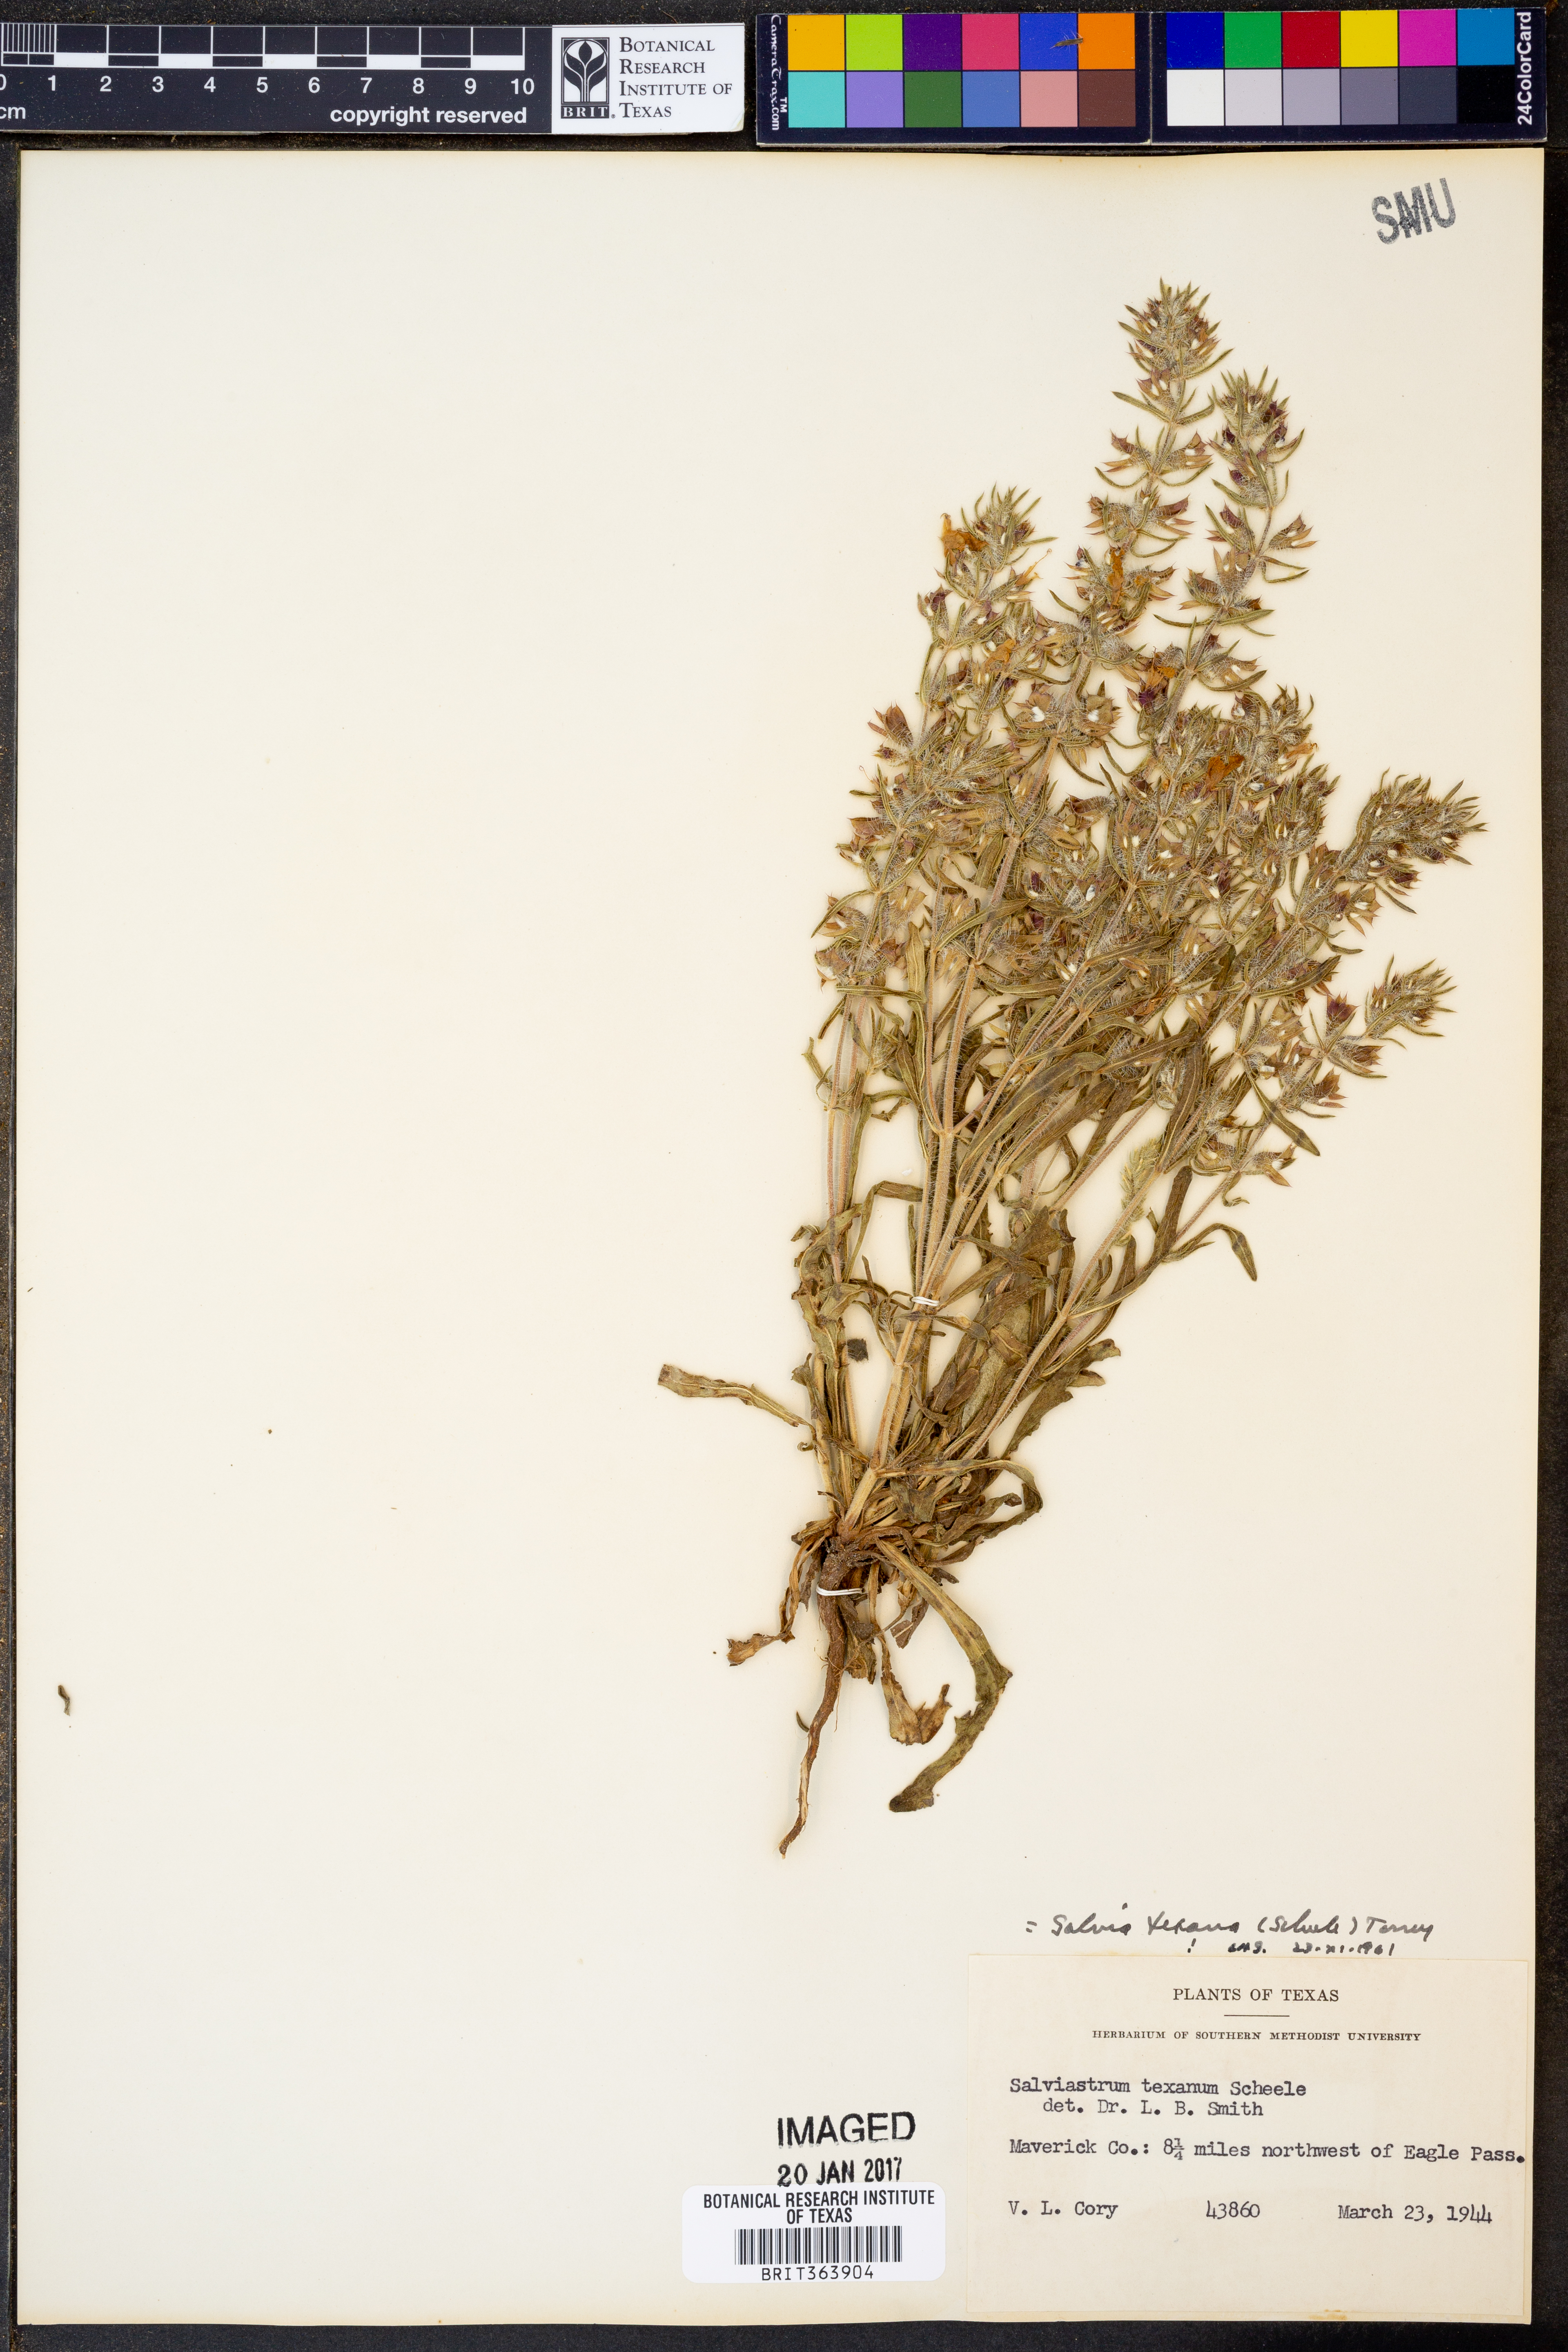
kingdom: Plantae
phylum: Tracheophyta
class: Magnoliopsida
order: Lamiales
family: Lamiaceae
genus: Salvia
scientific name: Salvia texana
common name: Texas sage
